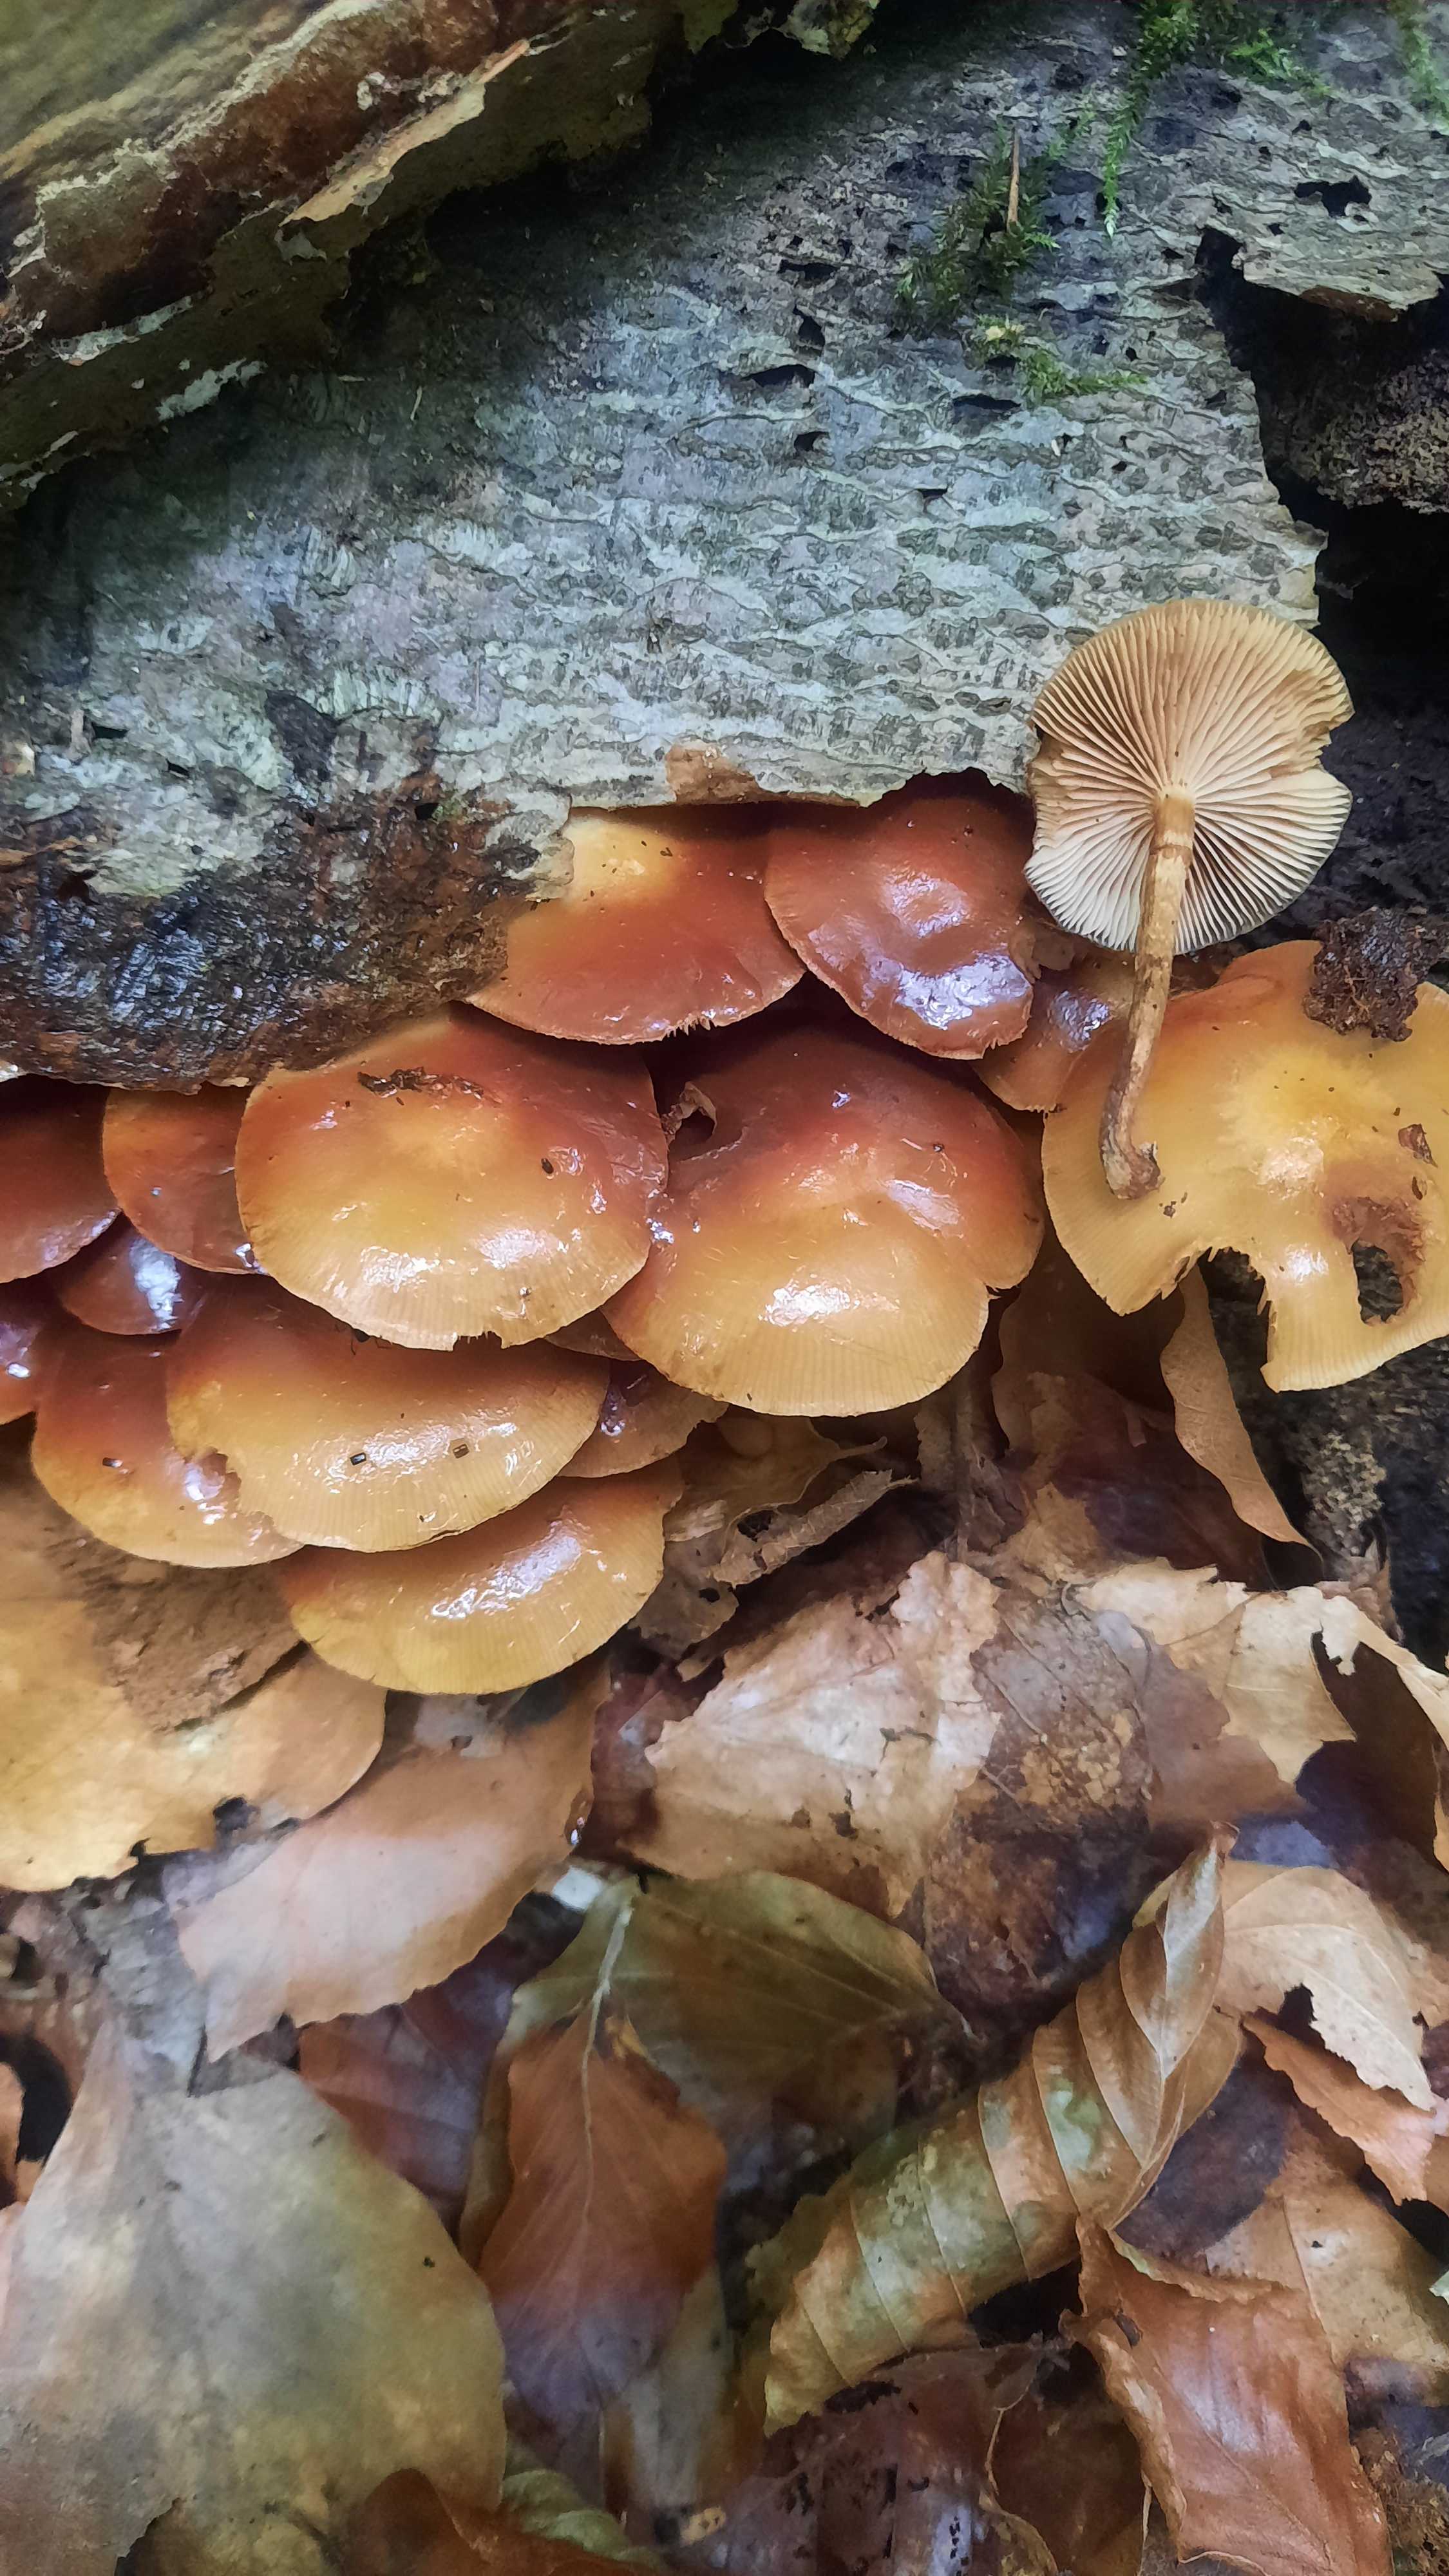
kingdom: Fungi
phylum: Basidiomycota
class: Agaricomycetes
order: Agaricales
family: Strophariaceae
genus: Kuehneromyces
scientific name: Kuehneromyces mutabilis
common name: foranderlig skælhat
